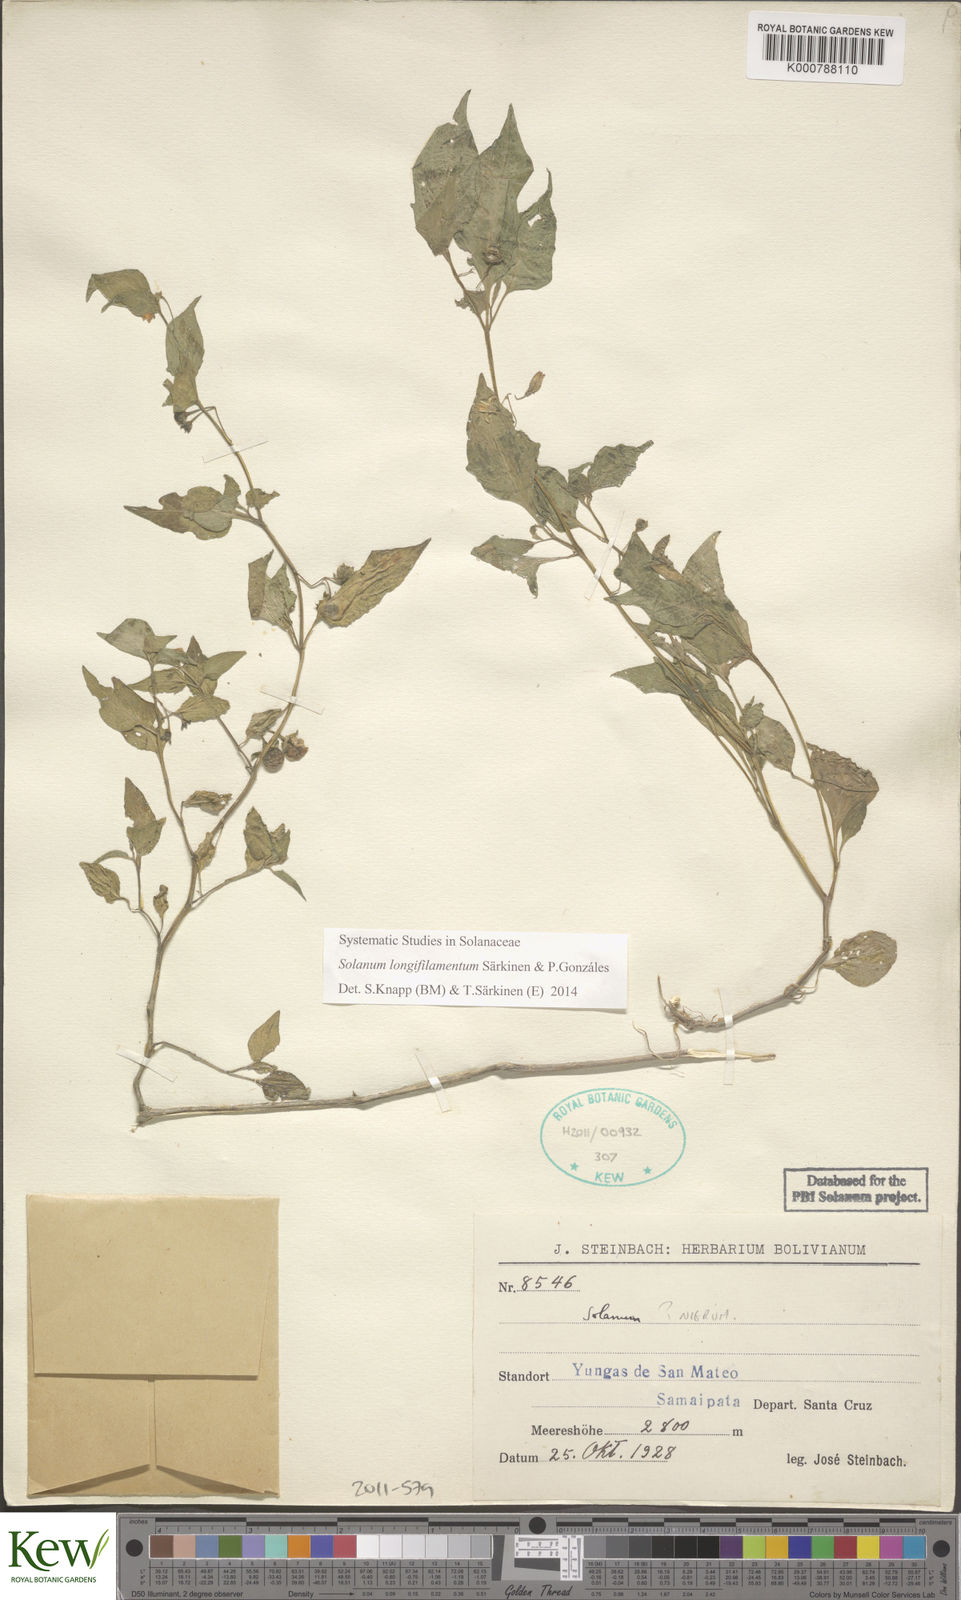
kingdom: Plantae
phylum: Tracheophyta
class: Magnoliopsida
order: Solanales
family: Solanaceae
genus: Solanum
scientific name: Solanum
